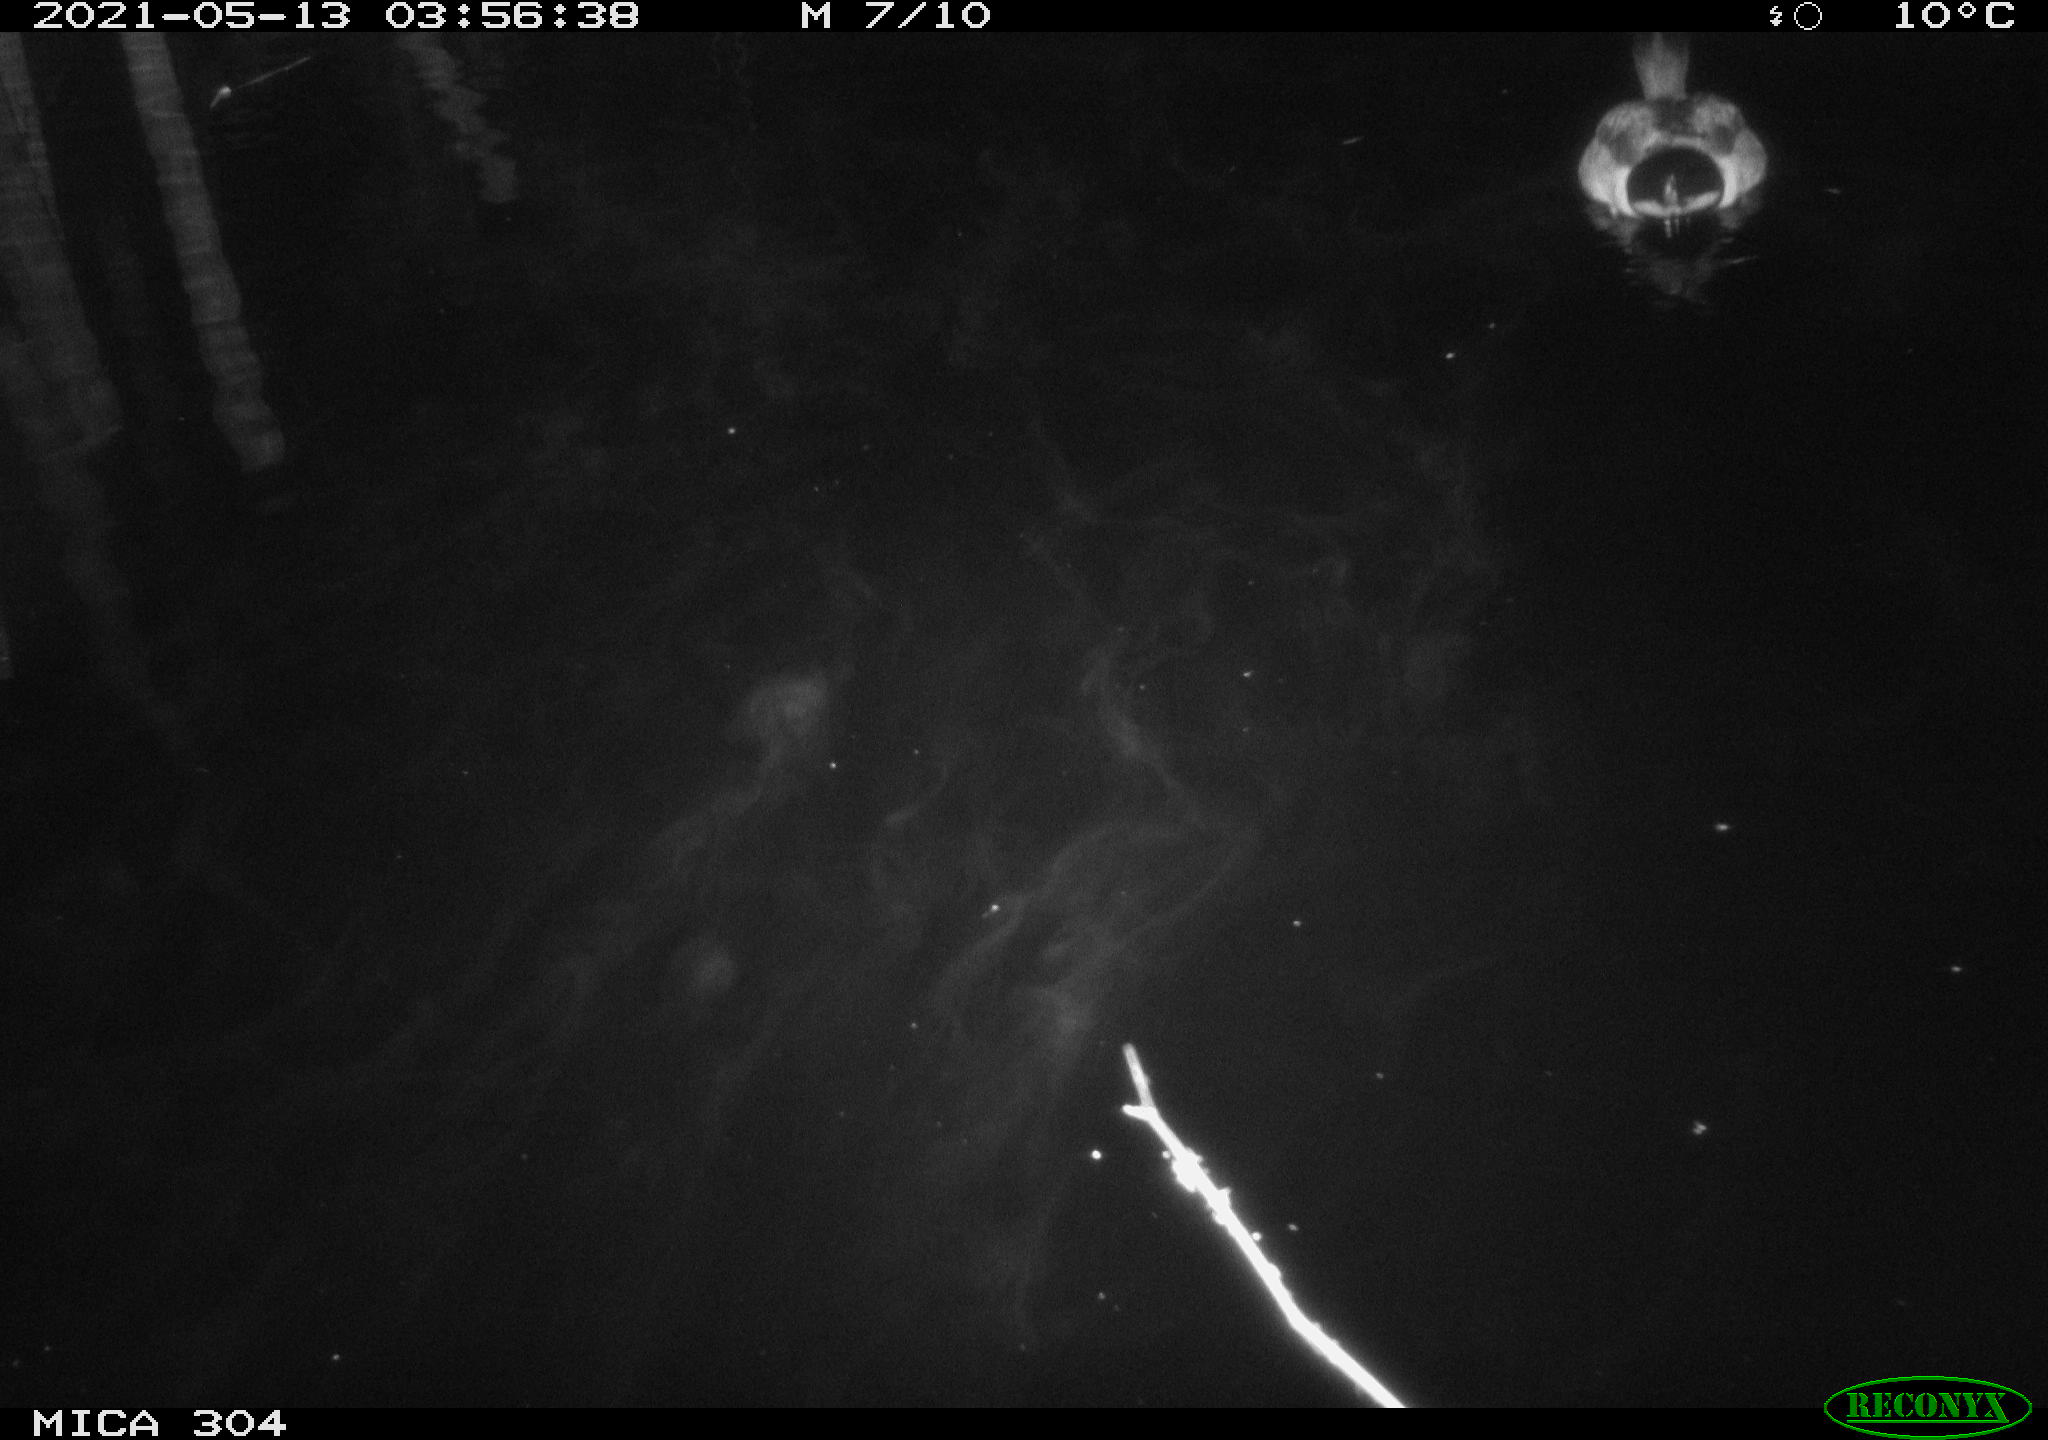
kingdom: Animalia
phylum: Chordata
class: Aves
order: Anseriformes
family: Anatidae
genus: Anas
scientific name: Anas platyrhynchos
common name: Mallard
